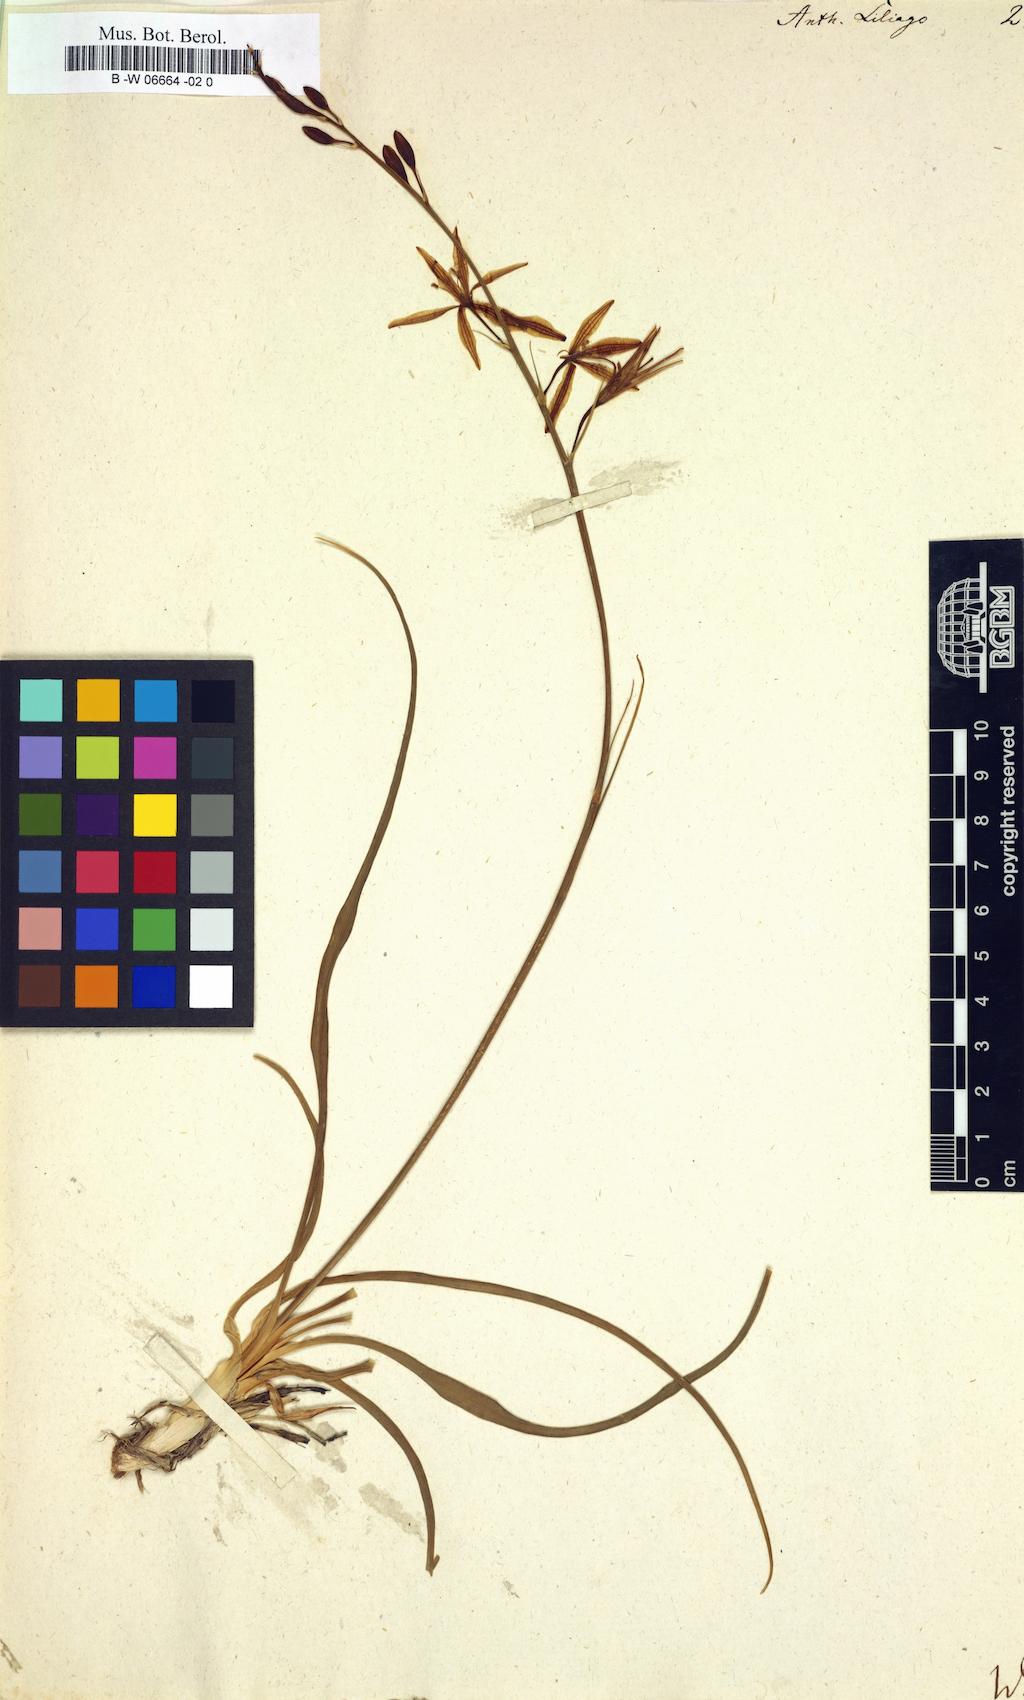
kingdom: Plantae
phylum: Tracheophyta
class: Liliopsida
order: Asparagales
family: Asparagaceae
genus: Anthericum
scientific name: Anthericum liliago
